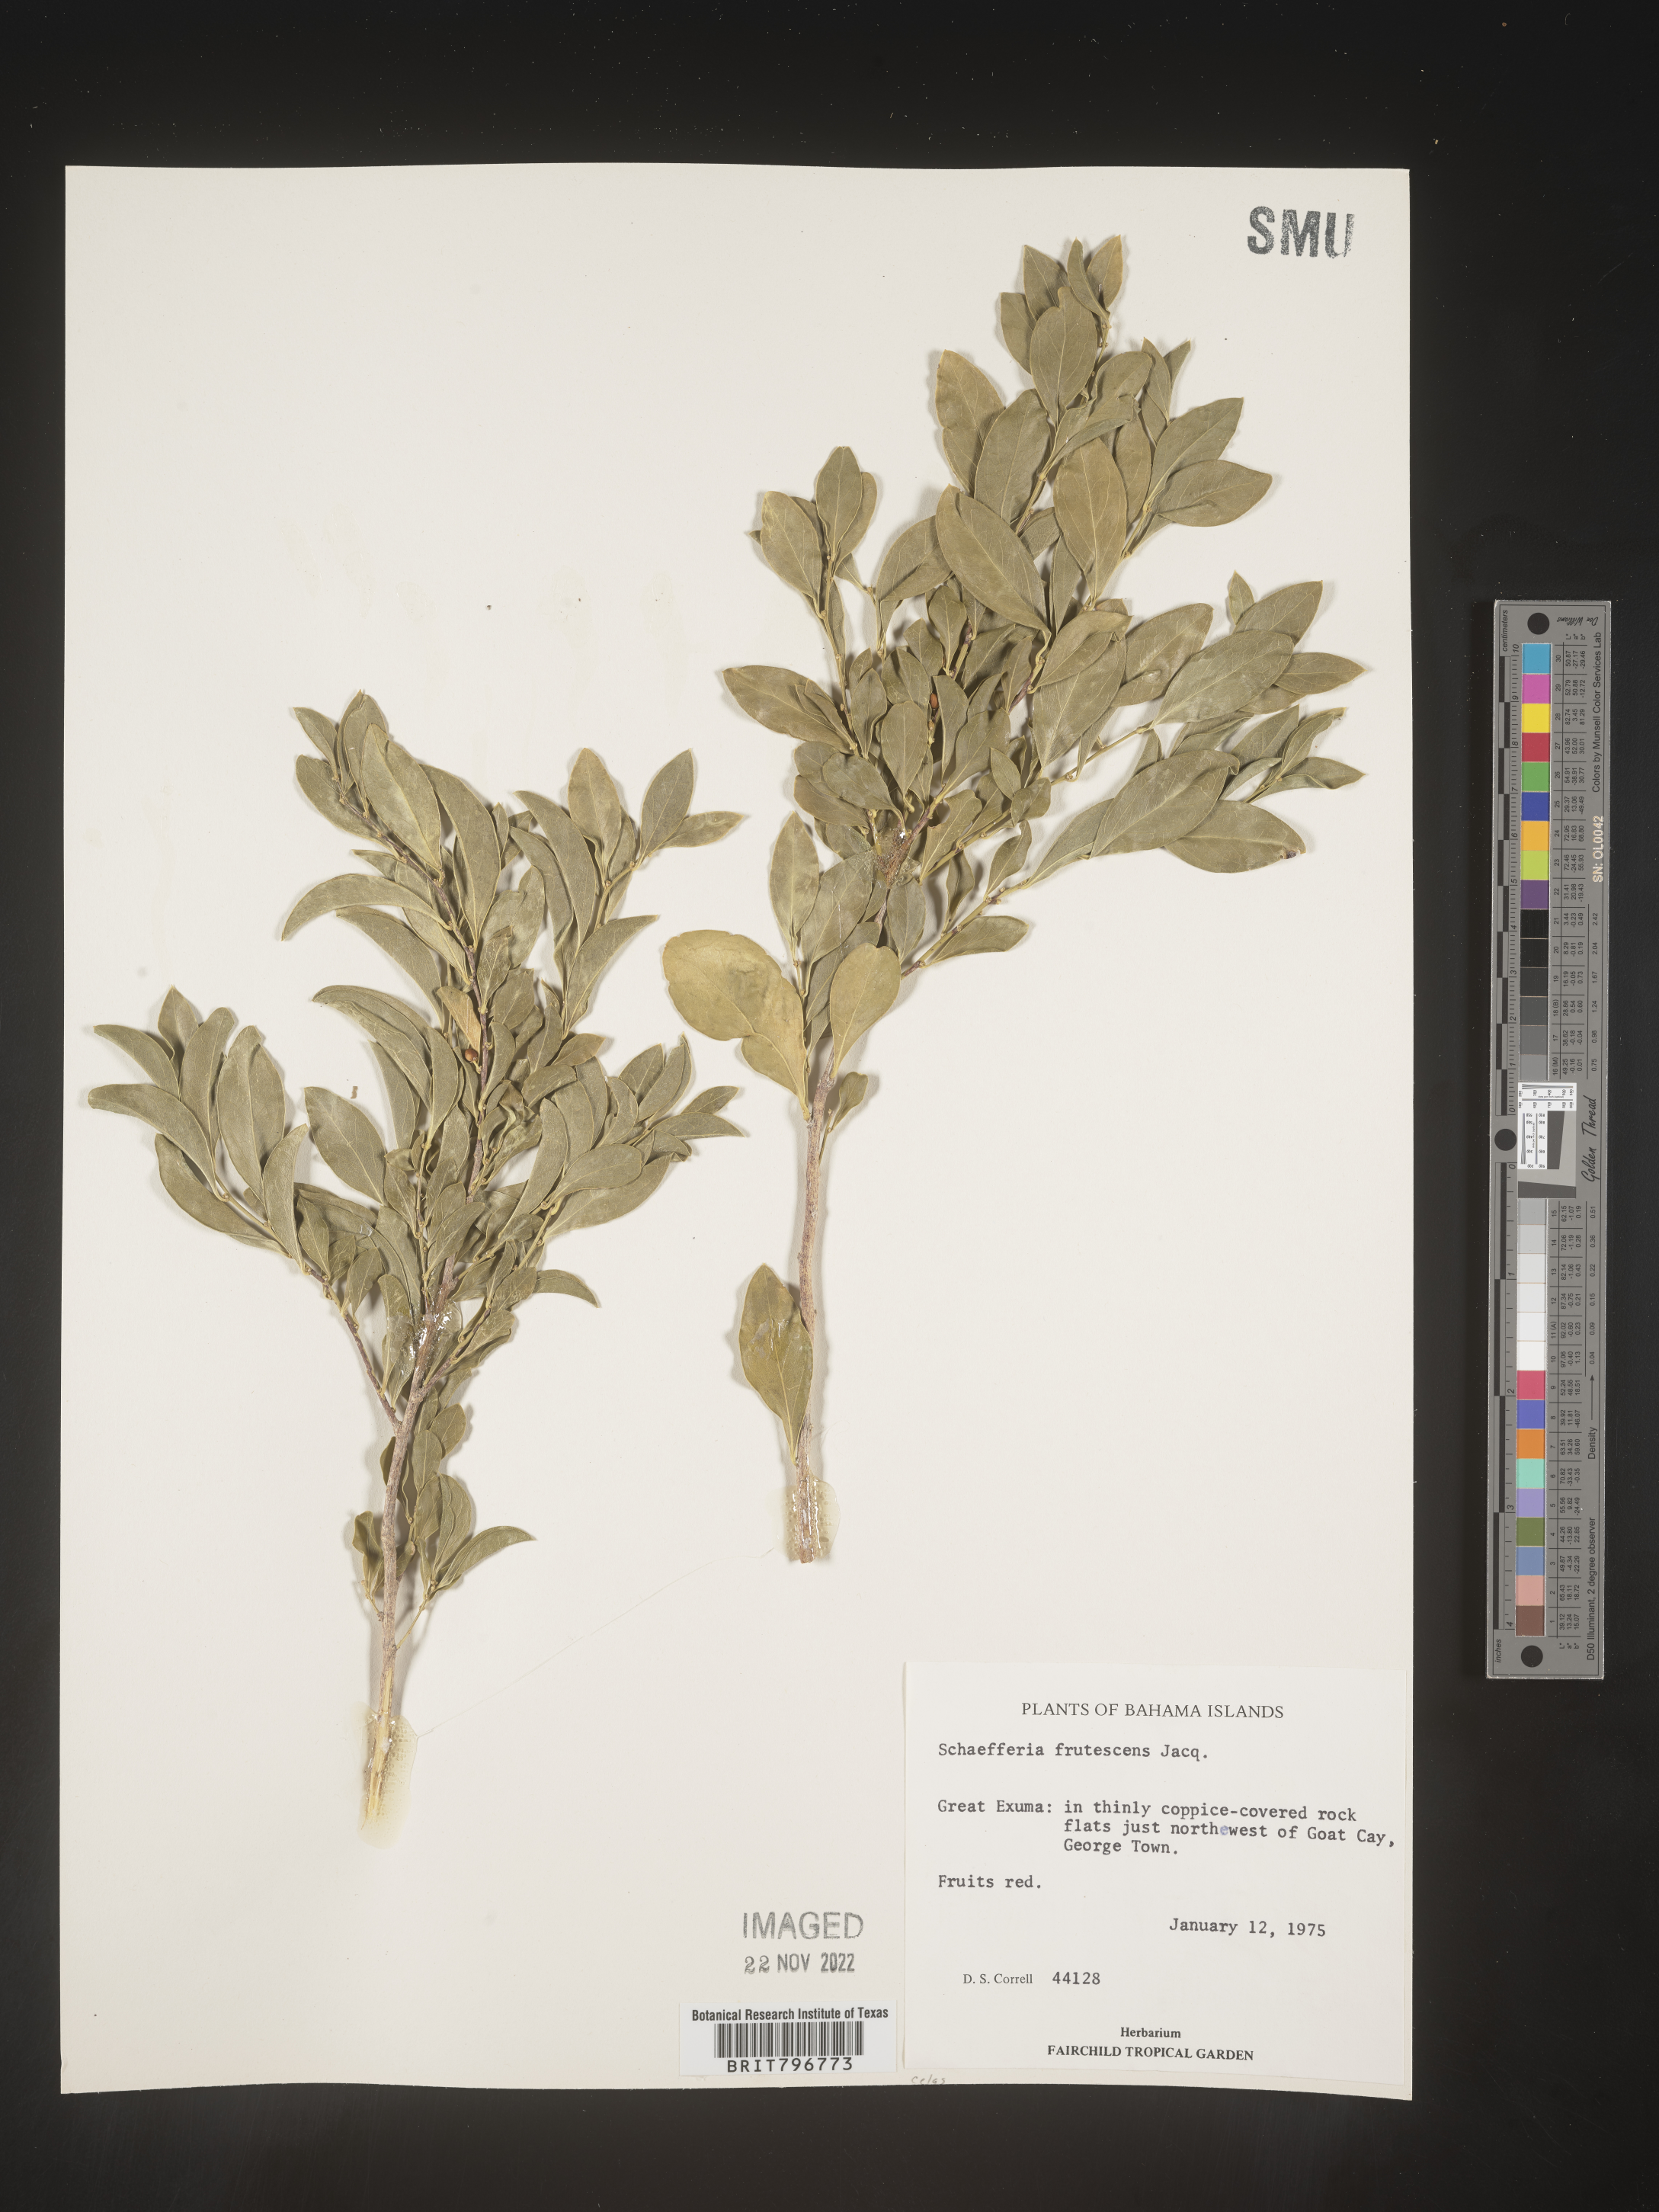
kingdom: Plantae
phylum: Tracheophyta
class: Magnoliopsida
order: Celastrales
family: Celastraceae
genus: Schaefferia
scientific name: Schaefferia
